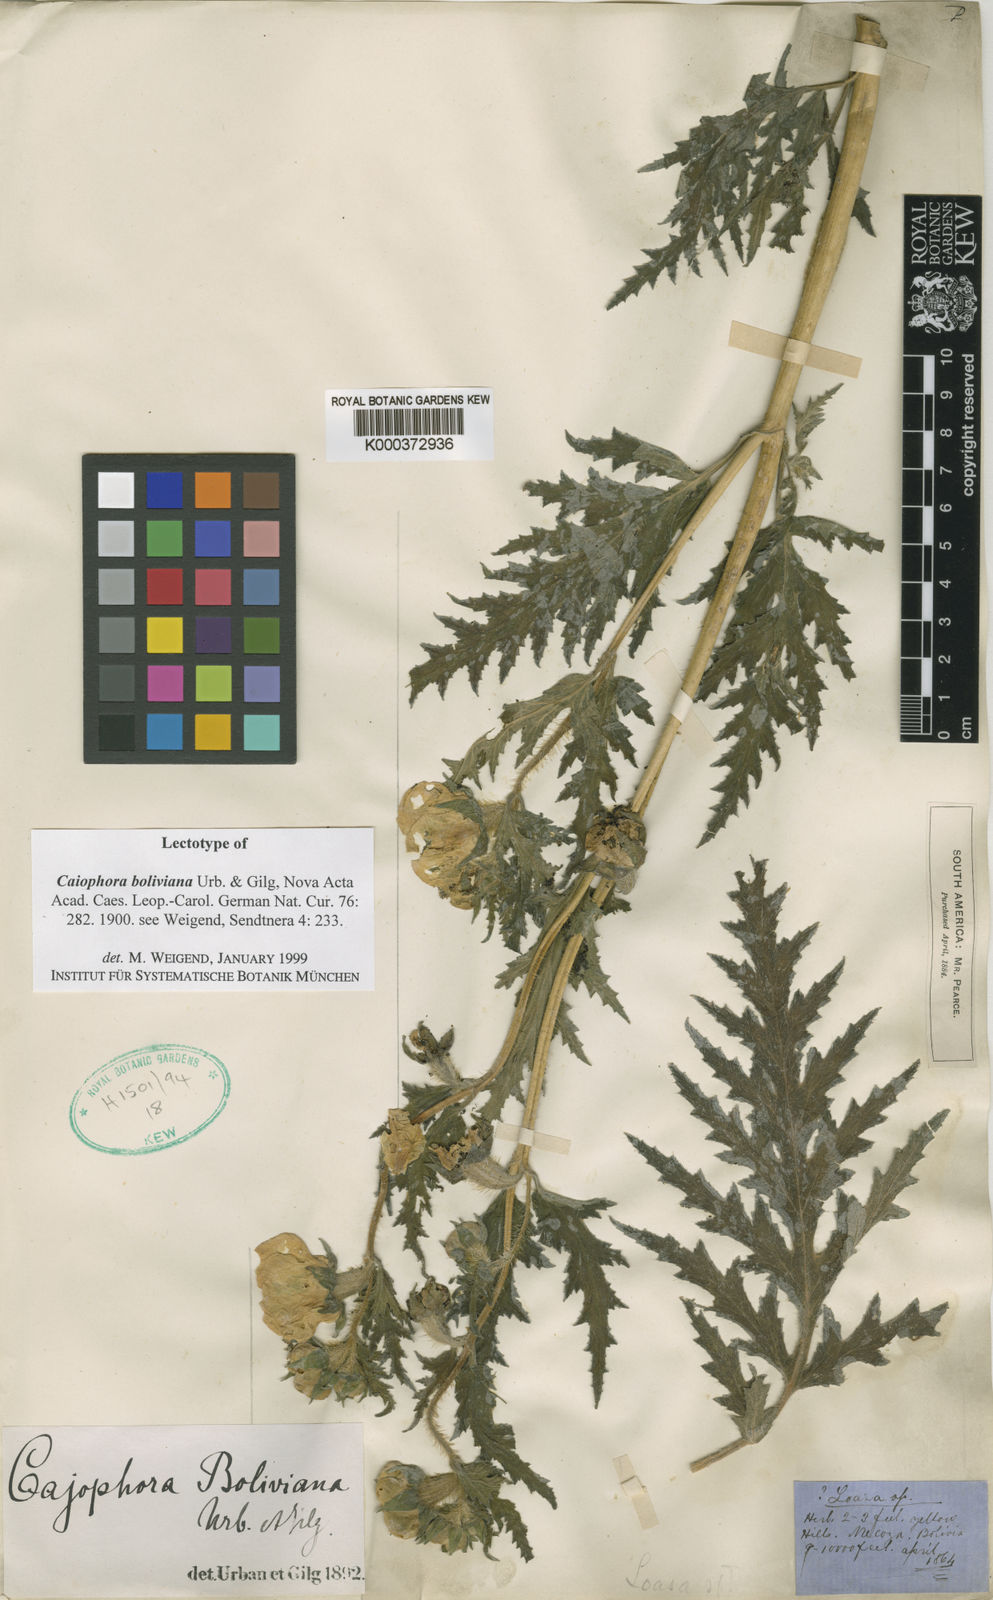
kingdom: Plantae
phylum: Tracheophyta
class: Magnoliopsida
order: Cornales
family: Loasaceae
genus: Caiophora
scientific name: Caiophora boliviana
